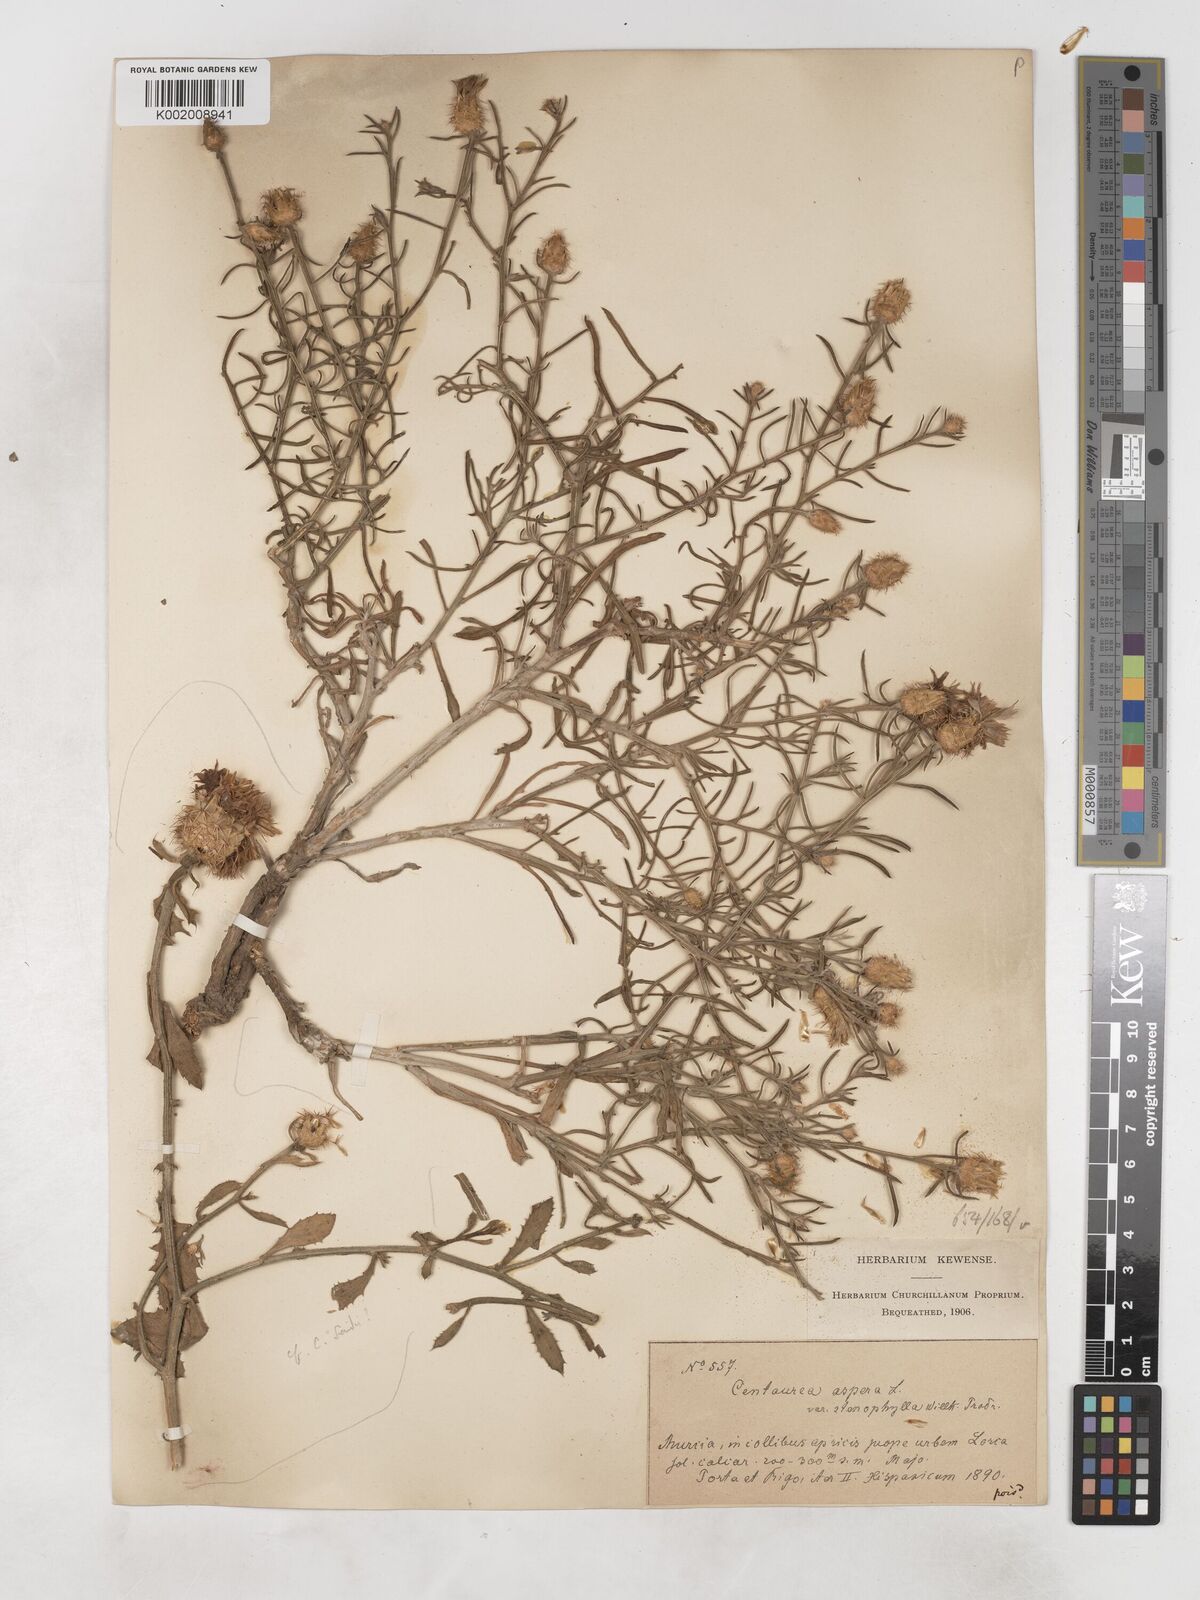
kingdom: Plantae
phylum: Tracheophyta
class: Magnoliopsida
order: Asterales
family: Asteraceae
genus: Centaurea
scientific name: Centaurea aspera
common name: Rough star-thistle
